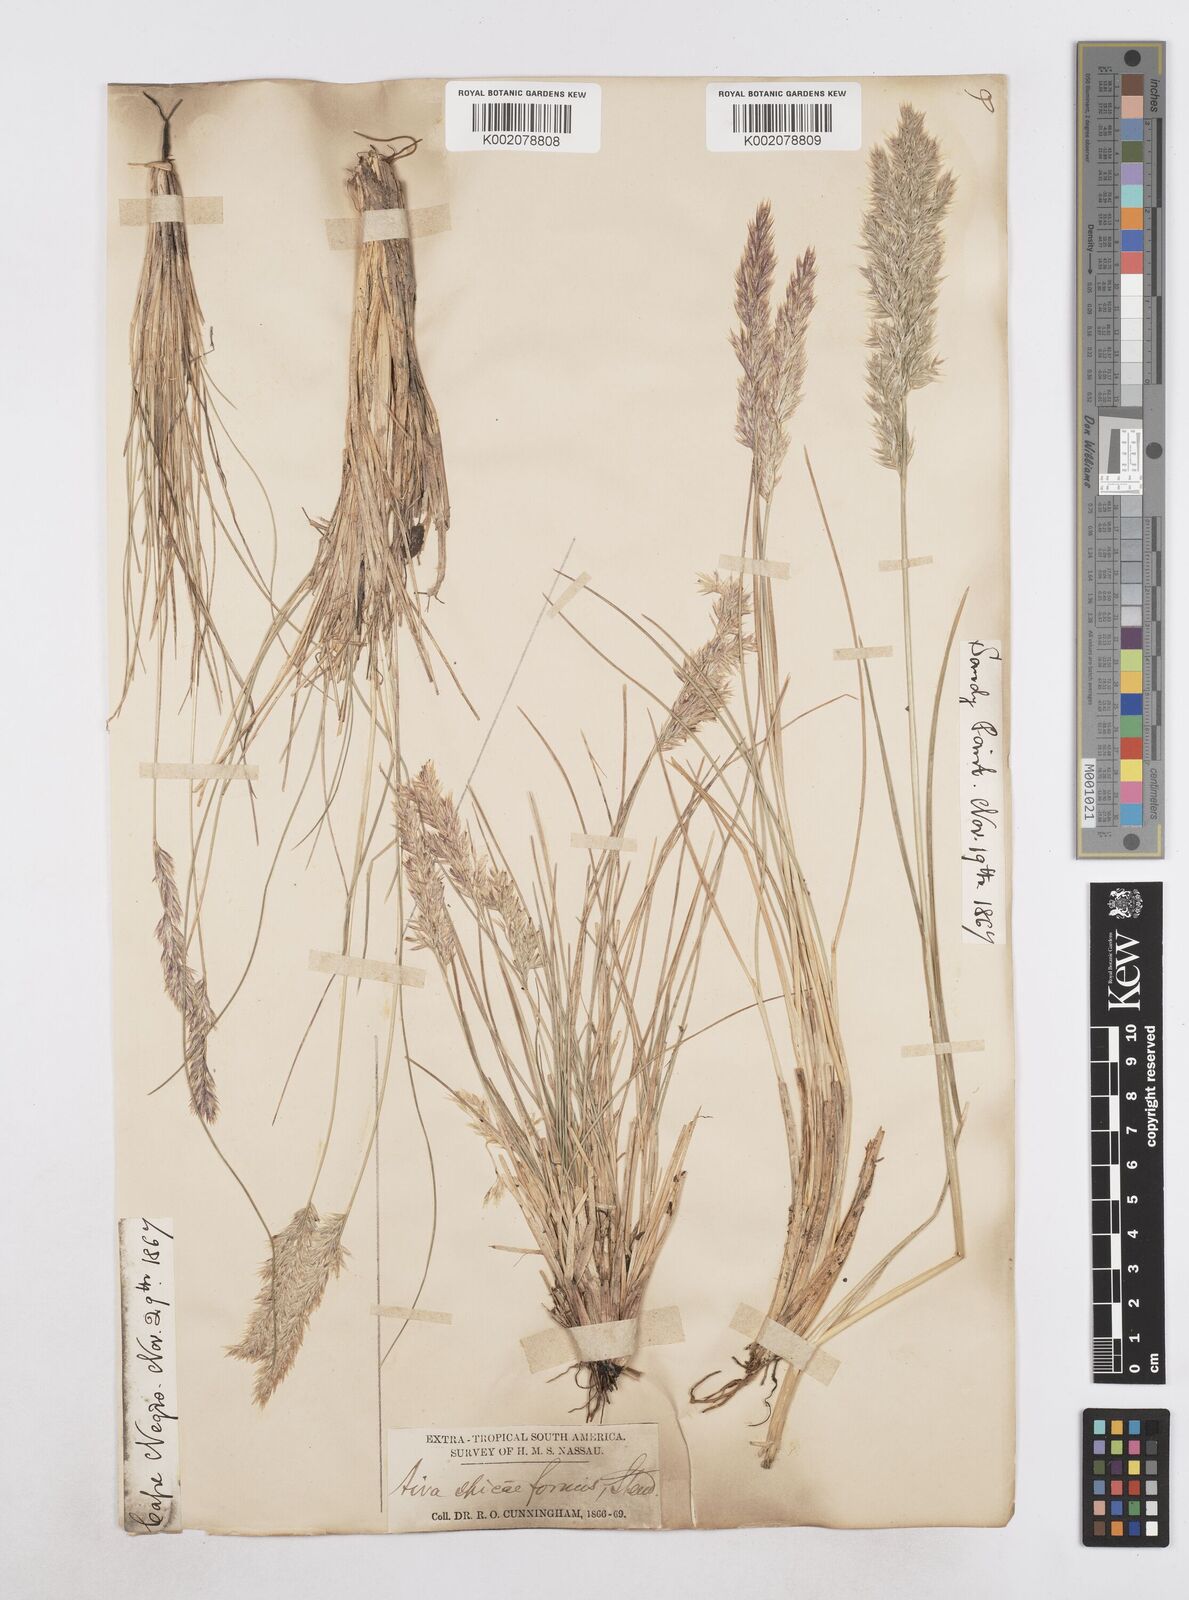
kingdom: Plantae
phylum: Tracheophyta
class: Liliopsida
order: Poales
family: Poaceae
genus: Poa
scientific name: Poa
